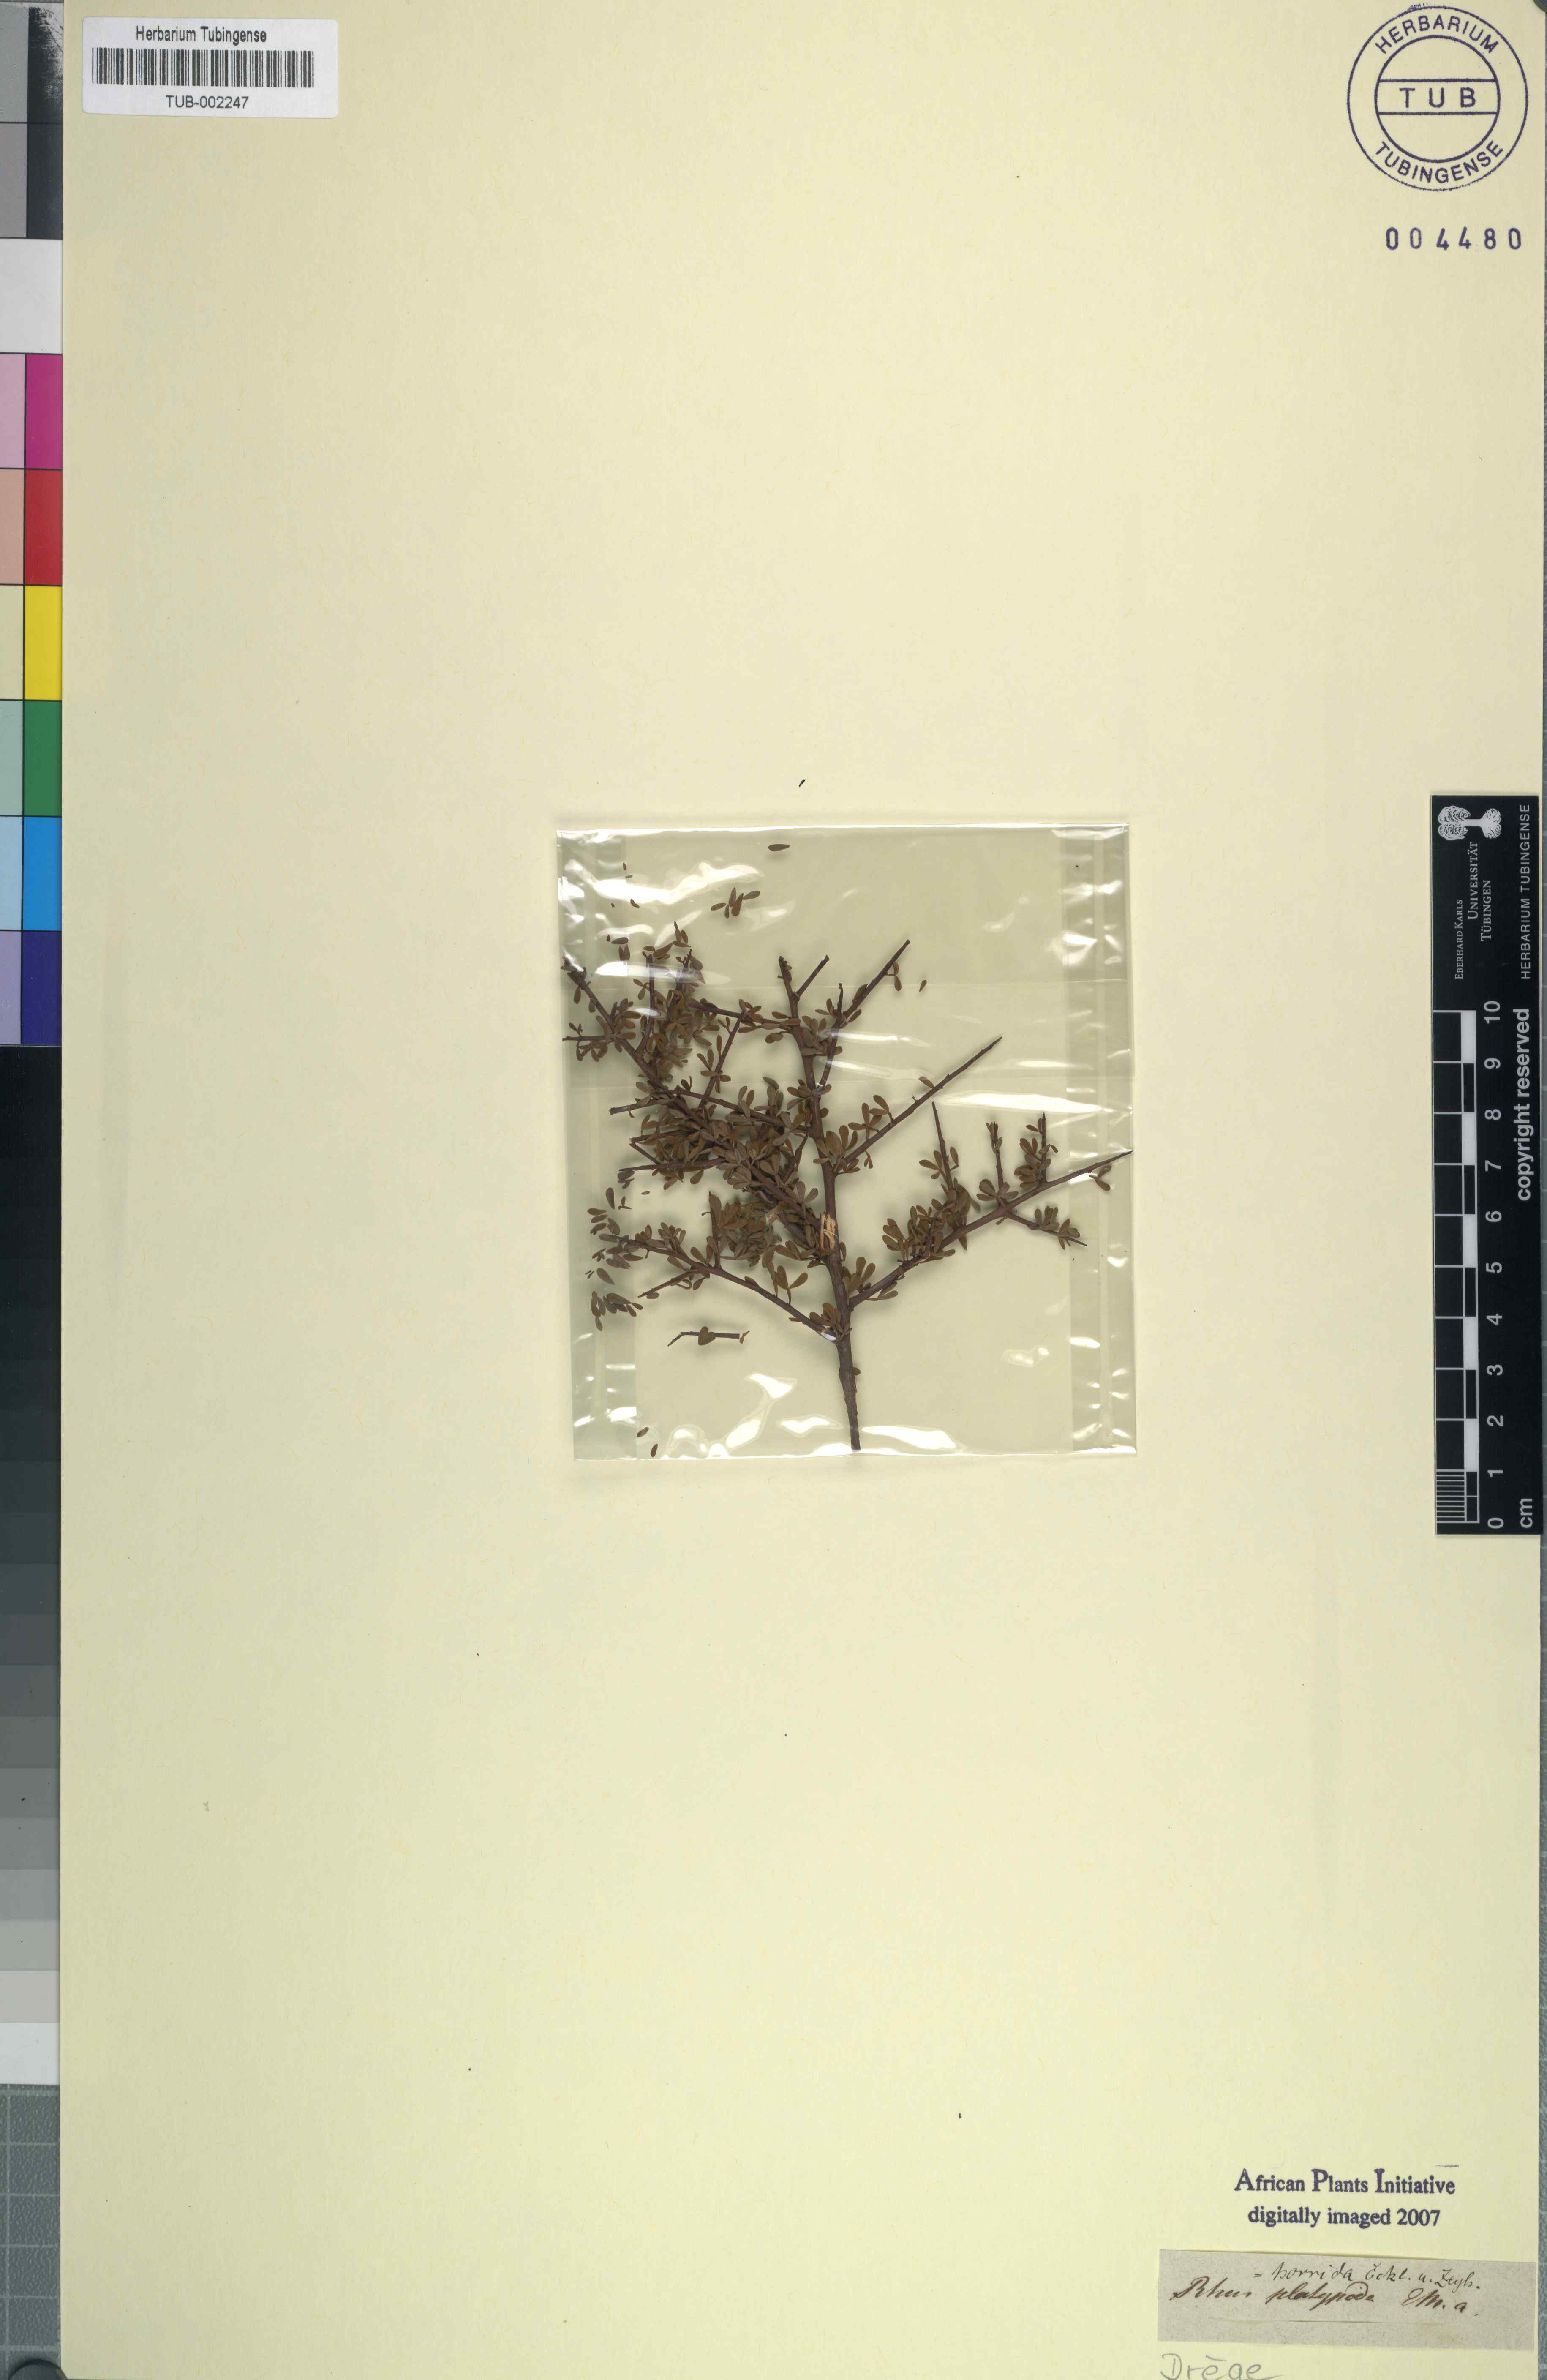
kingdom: Plantae
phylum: Tracheophyta
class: Magnoliopsida
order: Sapindales
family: Anacardiaceae
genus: Searsia
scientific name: Searsia horrida
